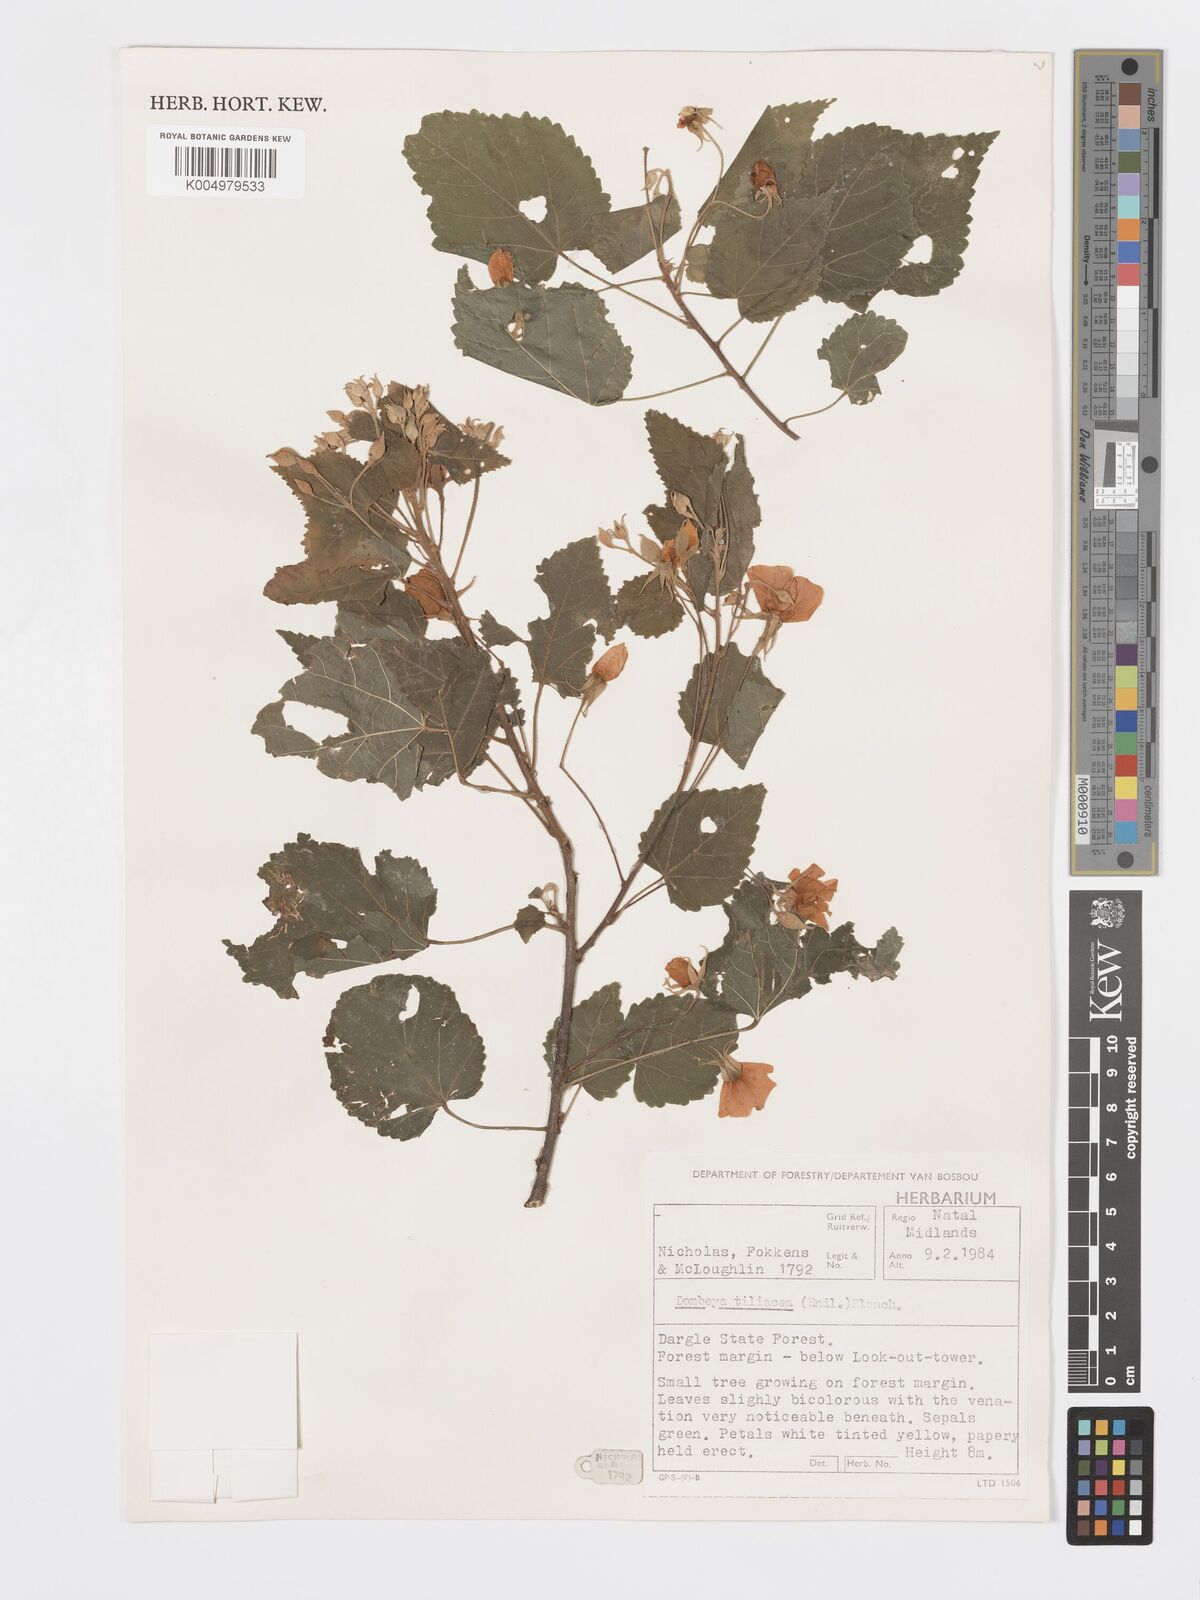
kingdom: Plantae
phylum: Tracheophyta
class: Magnoliopsida
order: Malvales
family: Malvaceae
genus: Dombeya
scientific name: Dombeya tiliacea
